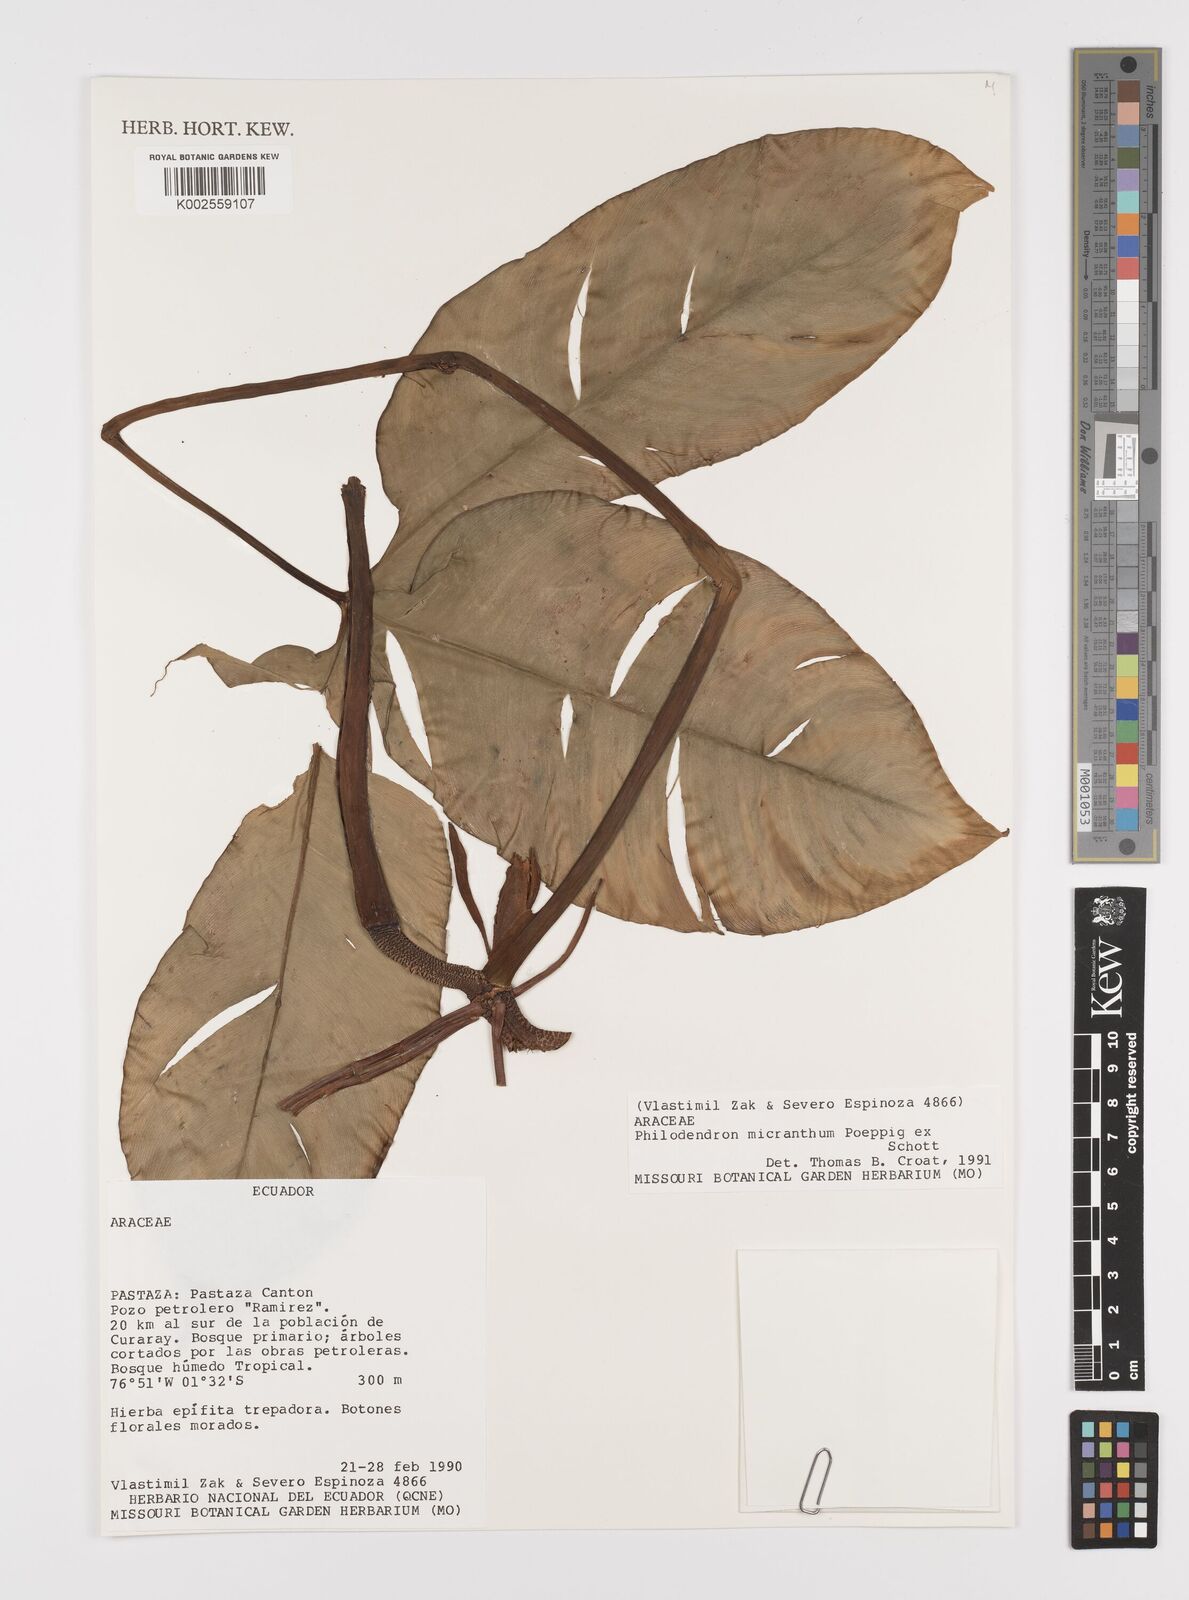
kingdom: Plantae
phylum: Tracheophyta
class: Liliopsida
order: Alismatales
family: Araceae
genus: Philodendron
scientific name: Philodendron micranthum
